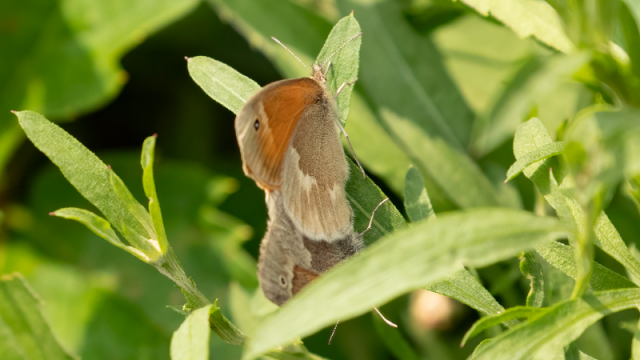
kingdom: Animalia
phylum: Arthropoda
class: Insecta
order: Lepidoptera
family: Nymphalidae
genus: Coenonympha
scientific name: Coenonympha tullia
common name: Large Heath
